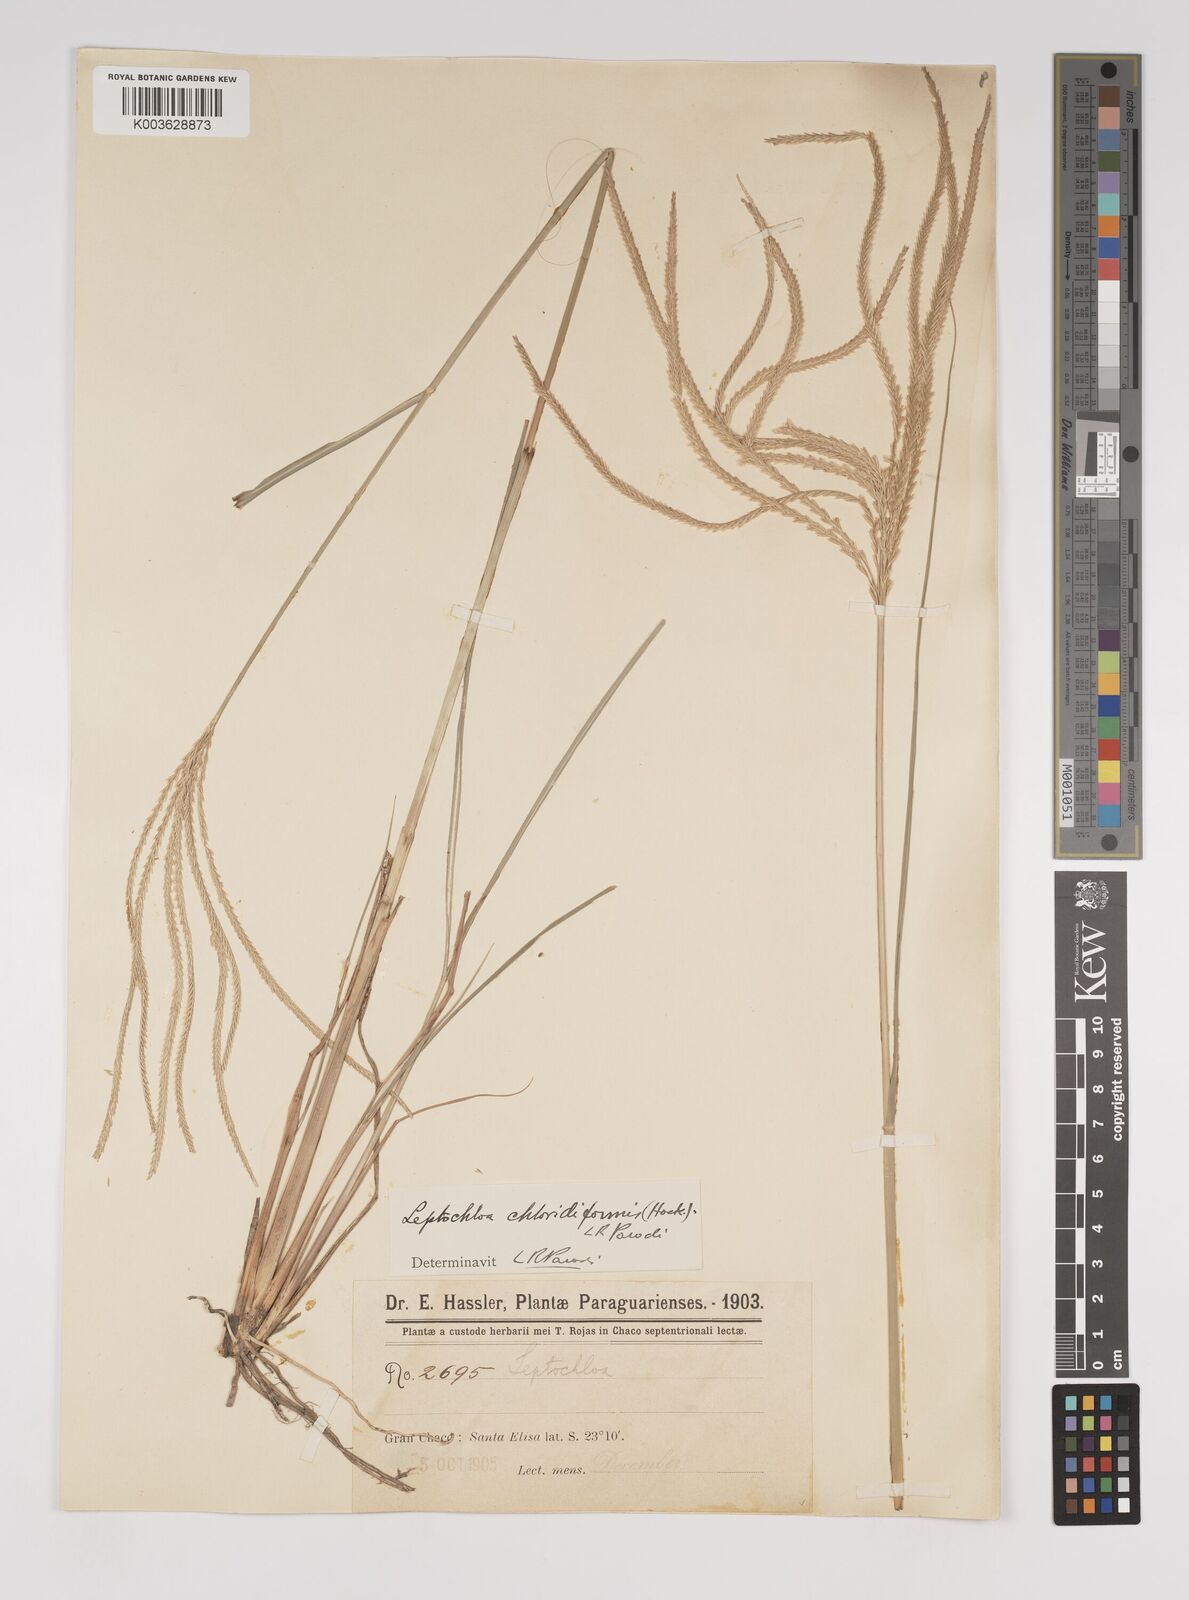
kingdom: Plantae
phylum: Tracheophyta
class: Liliopsida
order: Poales
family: Poaceae
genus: Leptochloa
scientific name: Leptochloa chloridiformis
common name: Argentine sprangletop
